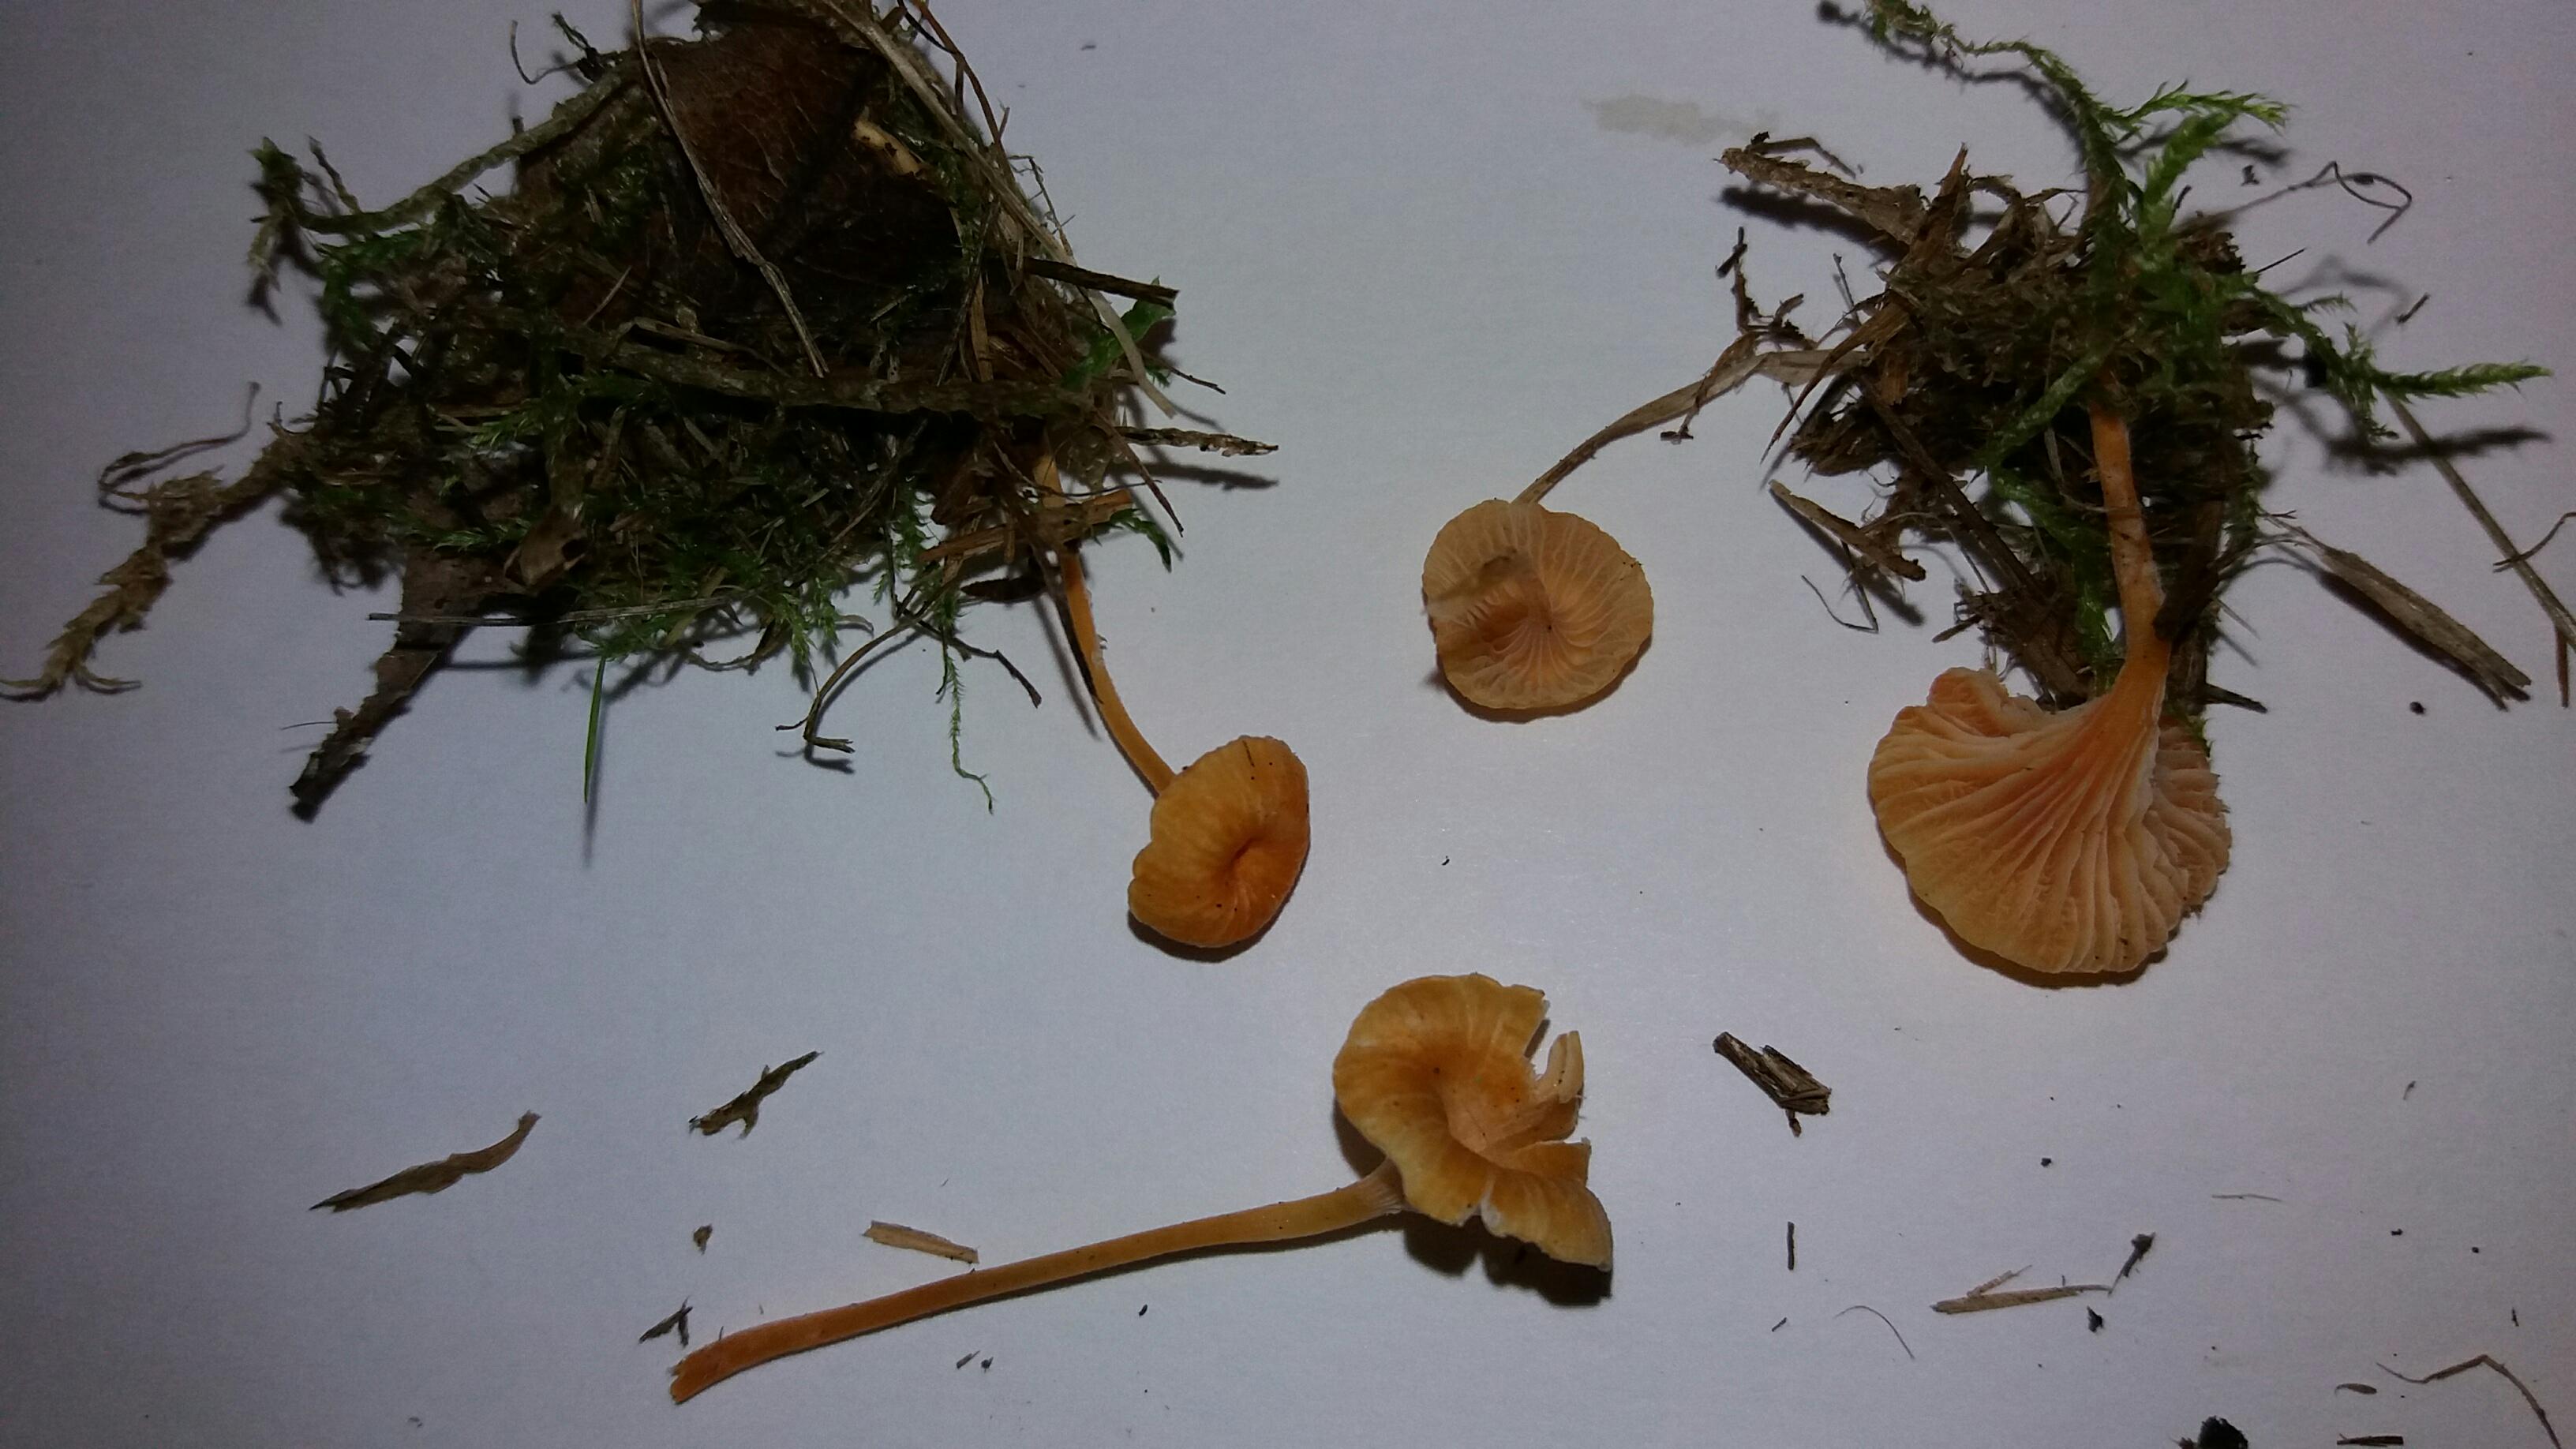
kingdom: Fungi
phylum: Basidiomycota
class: Agaricomycetes
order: Hymenochaetales
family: Rickenellaceae
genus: Rickenella
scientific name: Rickenella fibula
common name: orange mosnavlehat
